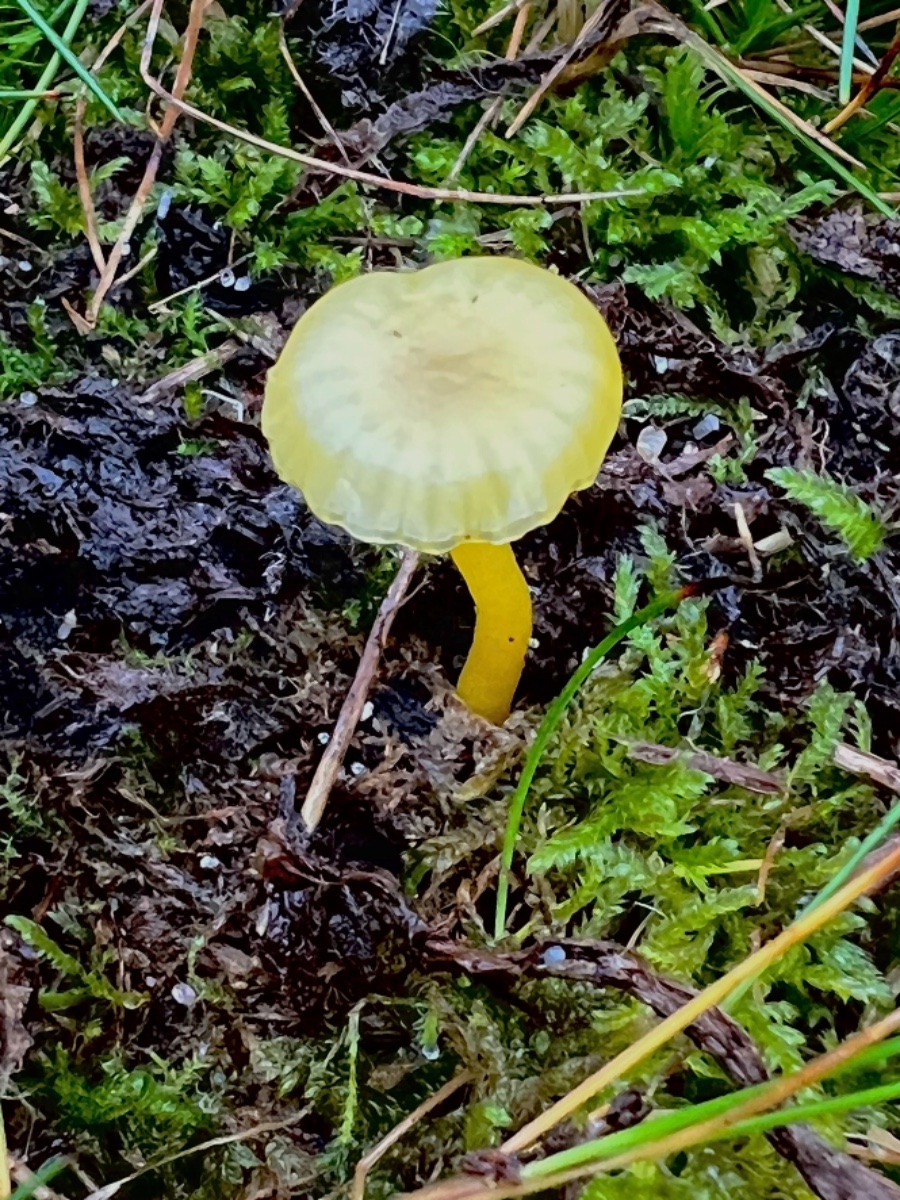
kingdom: Fungi
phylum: Basidiomycota
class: Agaricomycetes
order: Agaricales
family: Hygrophoraceae
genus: Gloioxanthomyces
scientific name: Gloioxanthomyces vitellinus
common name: kromgul vokshat
